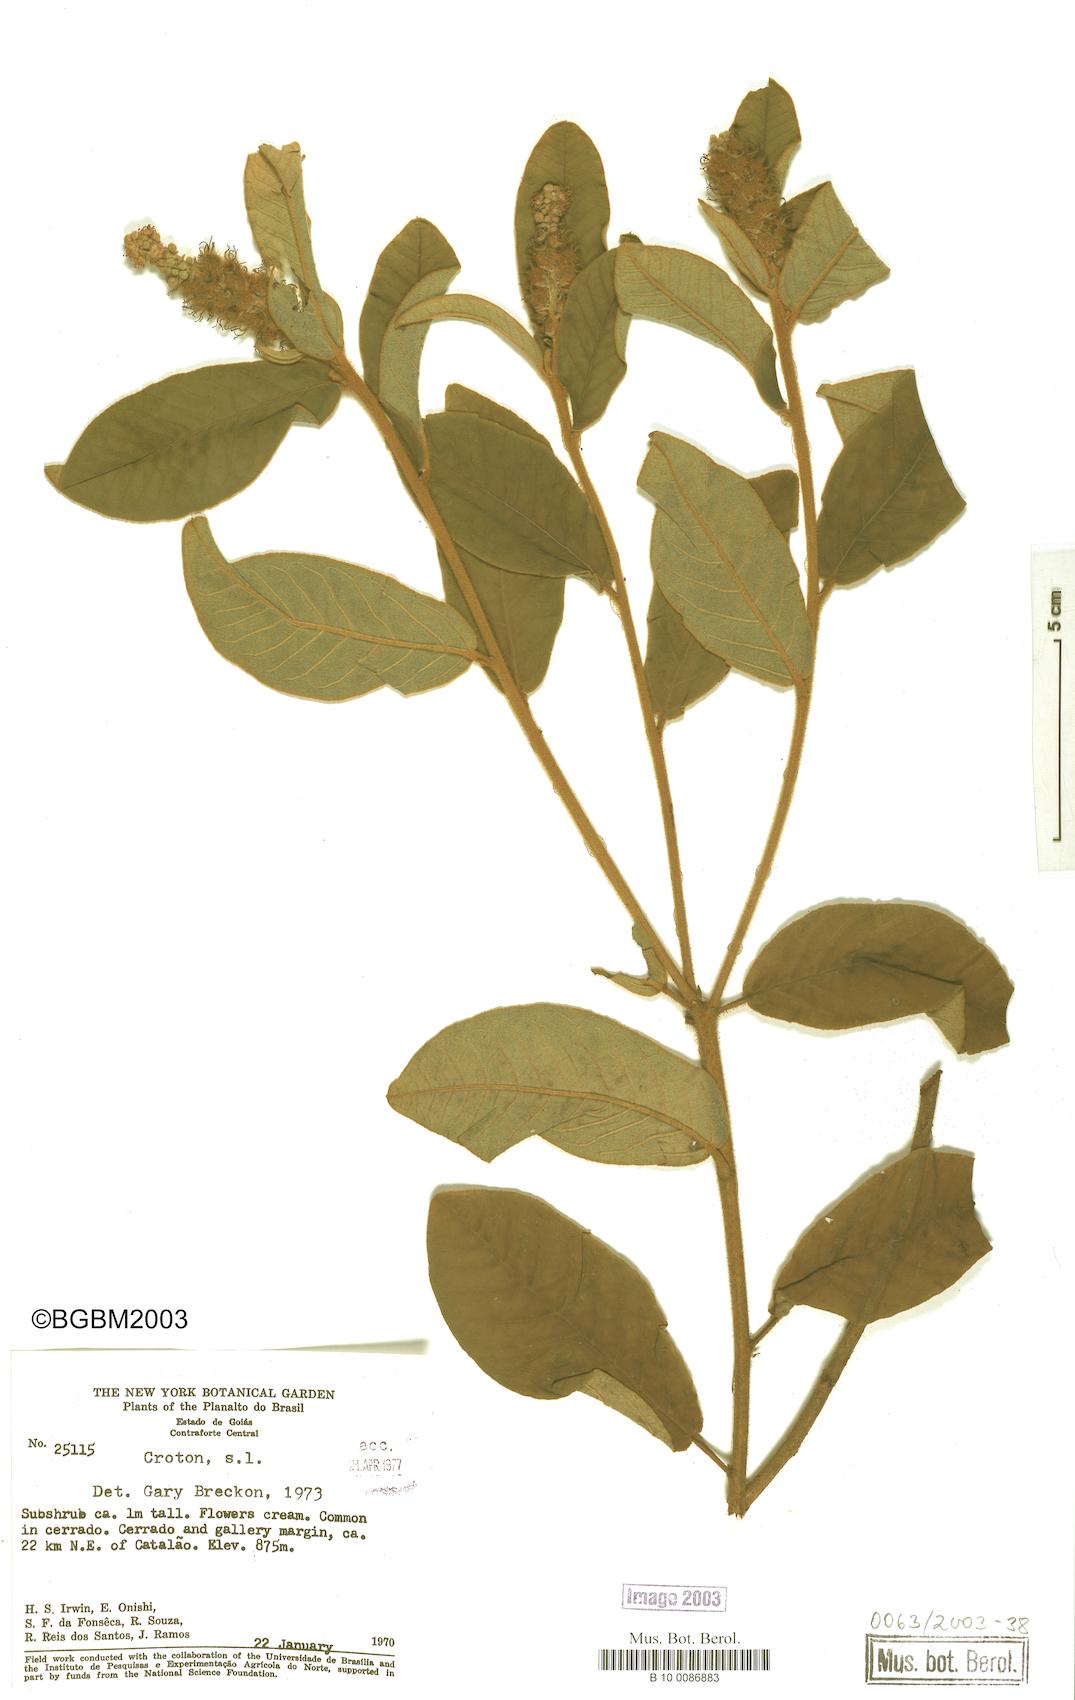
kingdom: Plantae
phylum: Tracheophyta
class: Magnoliopsida
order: Malpighiales
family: Euphorbiaceae
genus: Croton
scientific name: Croton
